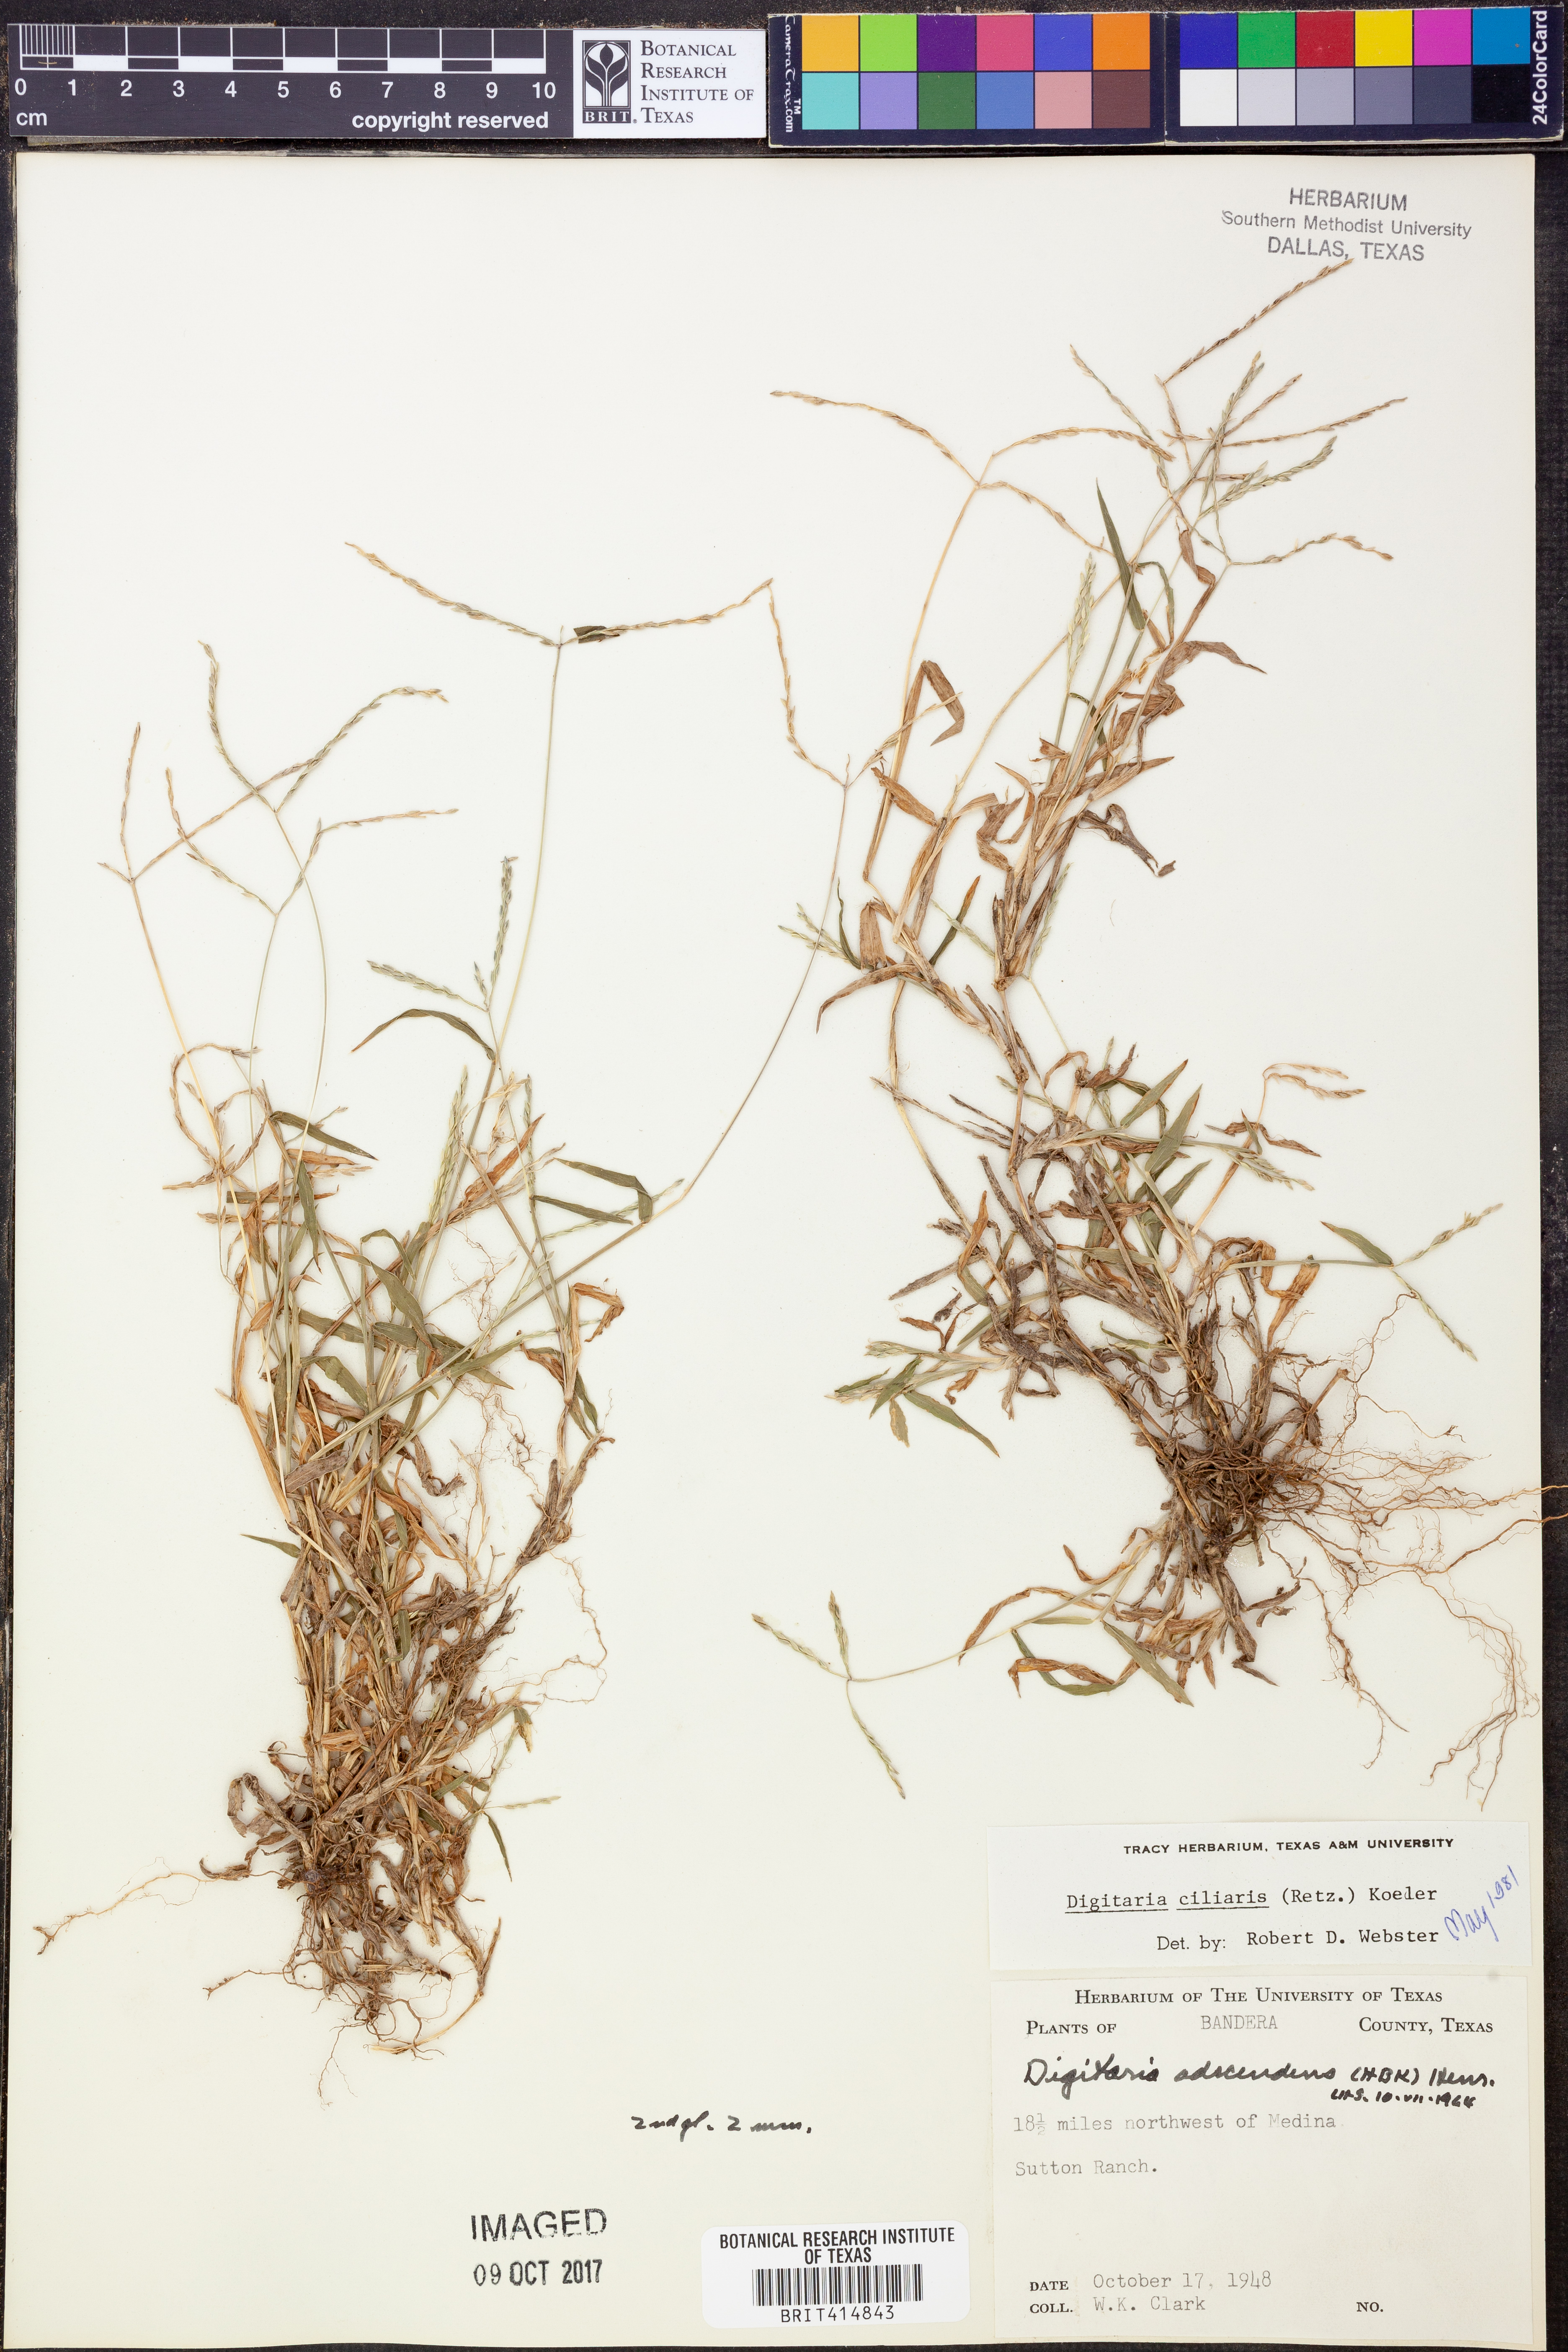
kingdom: Plantae
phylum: Tracheophyta
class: Liliopsida
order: Poales
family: Poaceae
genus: Digitaria
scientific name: Digitaria ciliaris
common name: Tropical finger-grass
